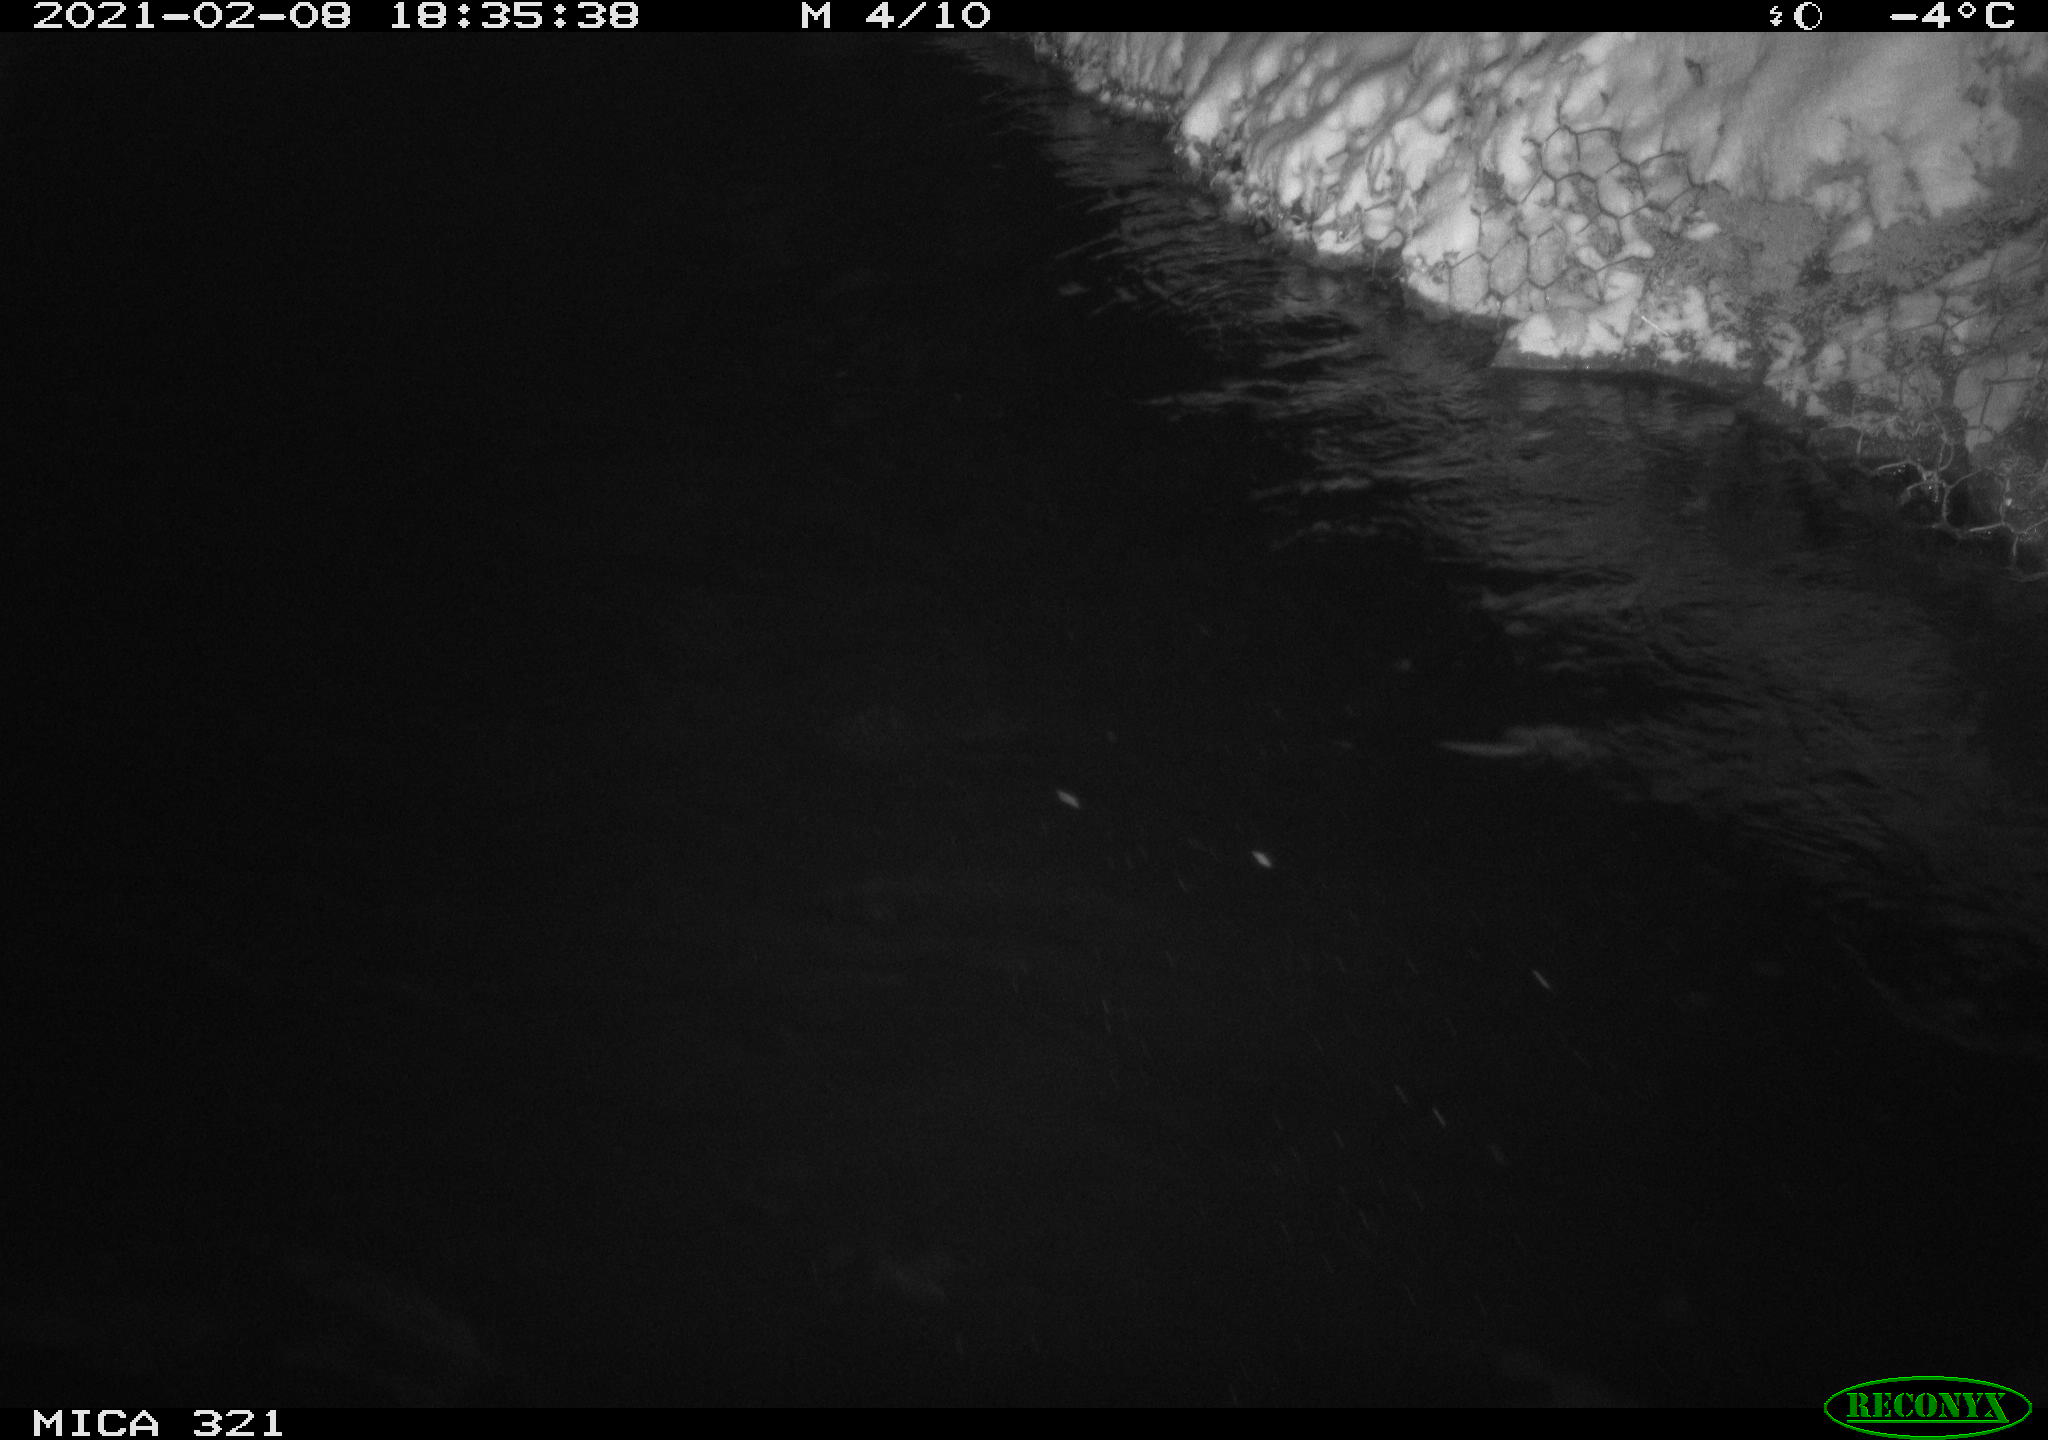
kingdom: Animalia
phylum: Chordata
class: Aves
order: Anseriformes
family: Anatidae
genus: Anas
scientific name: Anas platyrhynchos
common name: Mallard
